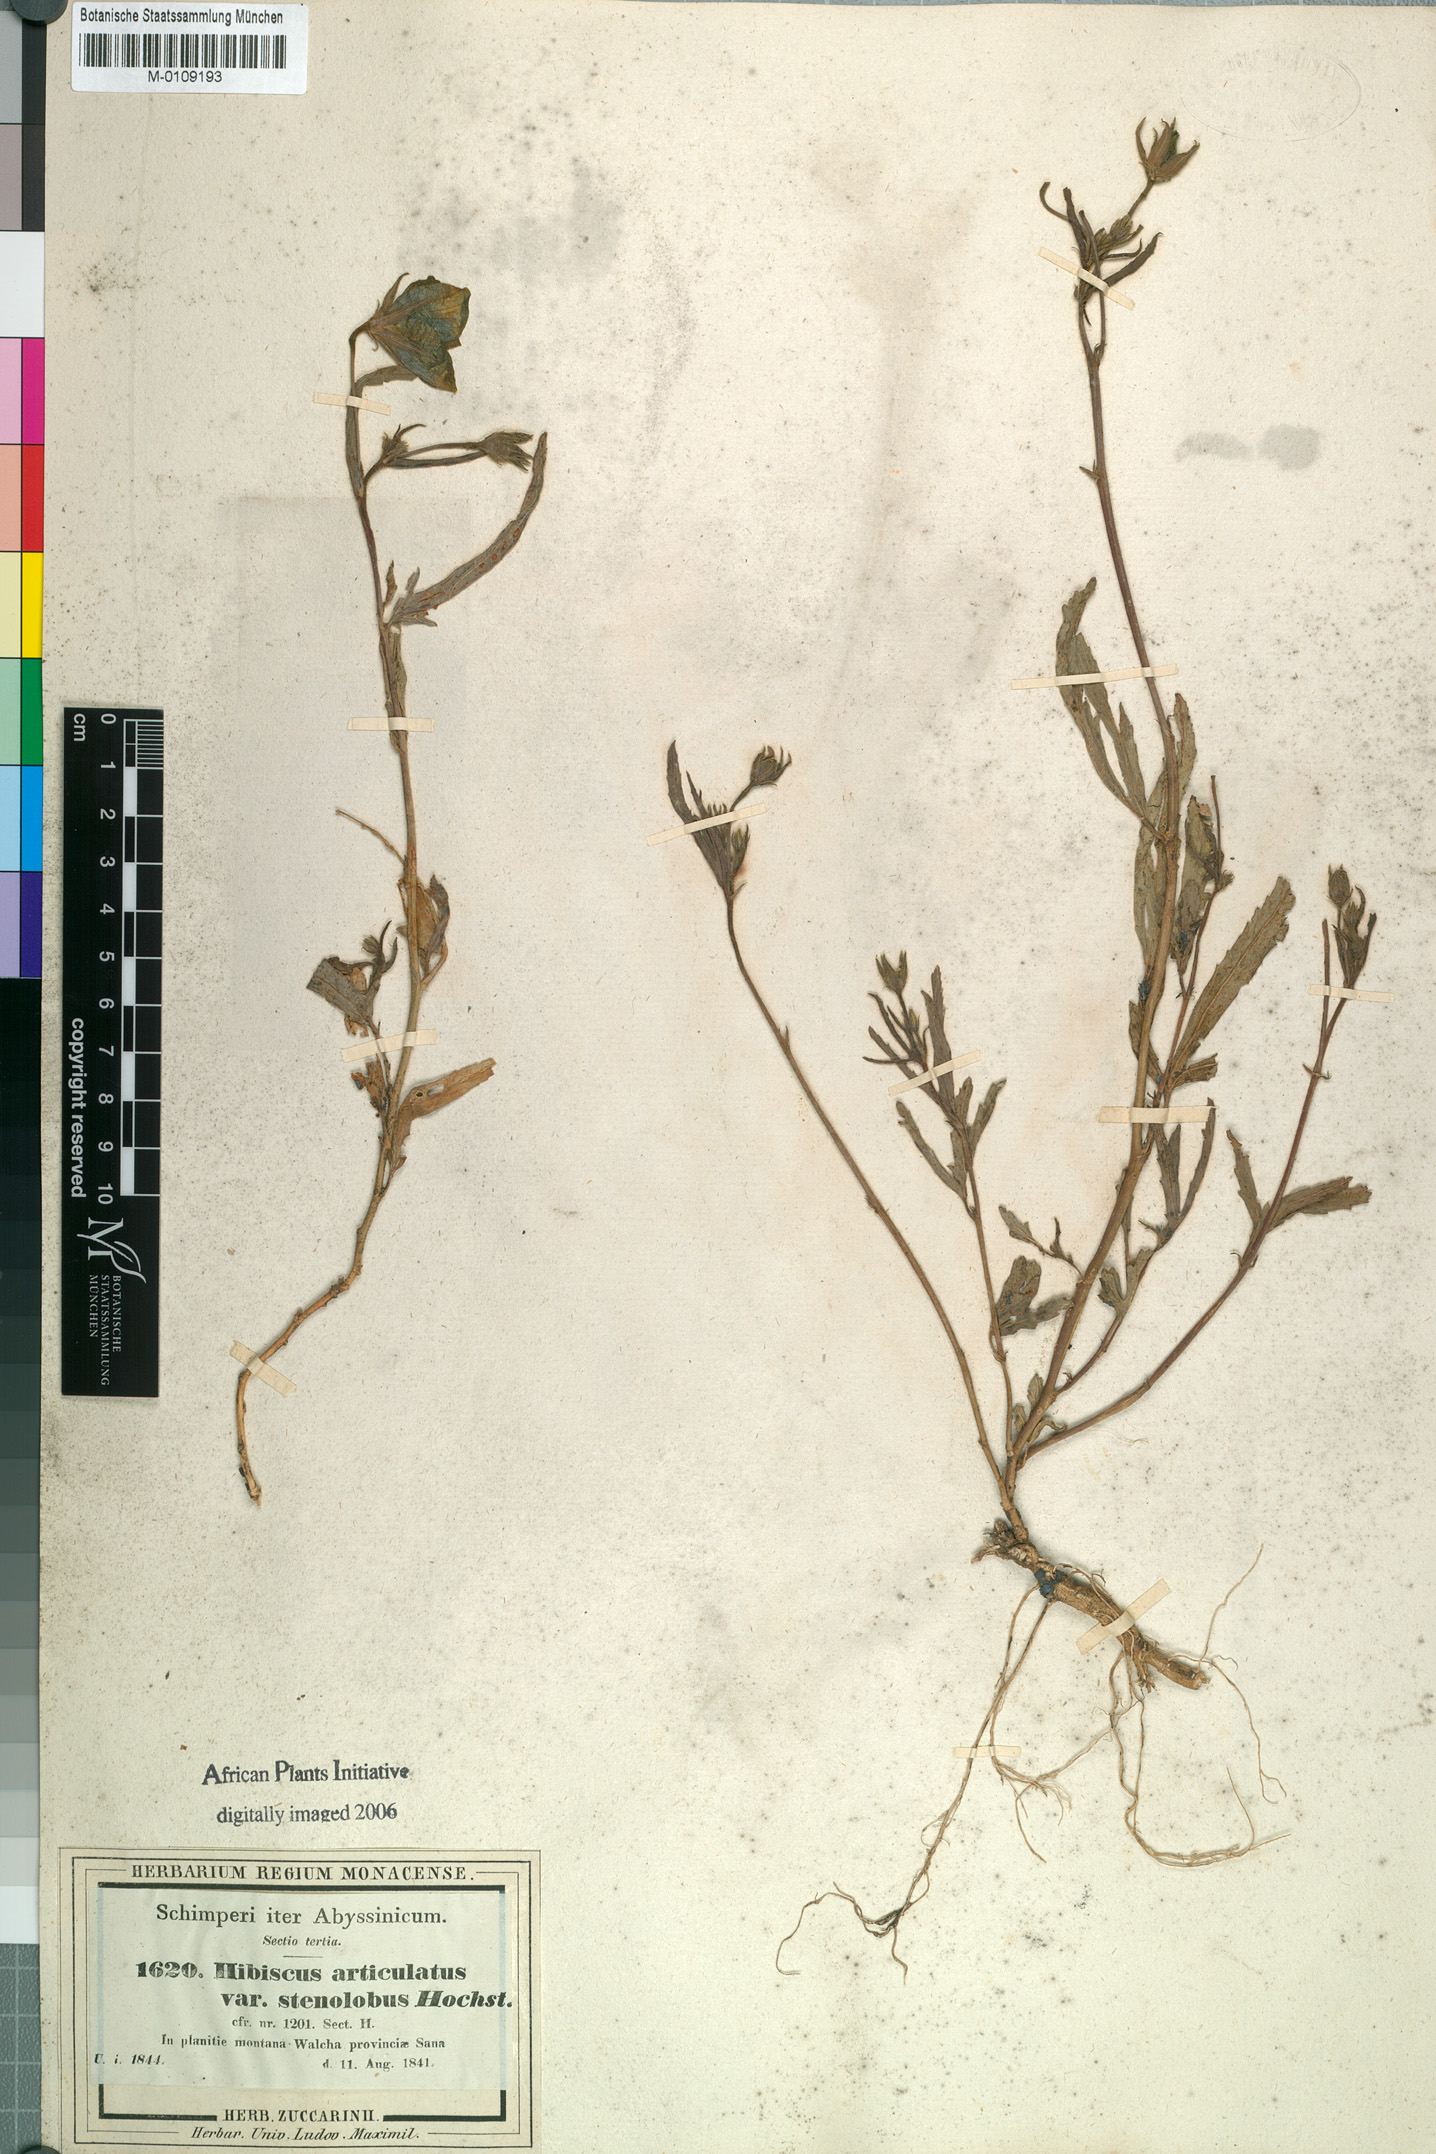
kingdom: Plantae
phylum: Tracheophyta
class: Magnoliopsida
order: Malvales
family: Malvaceae
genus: Hibiscus
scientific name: Hibiscus articulatus
